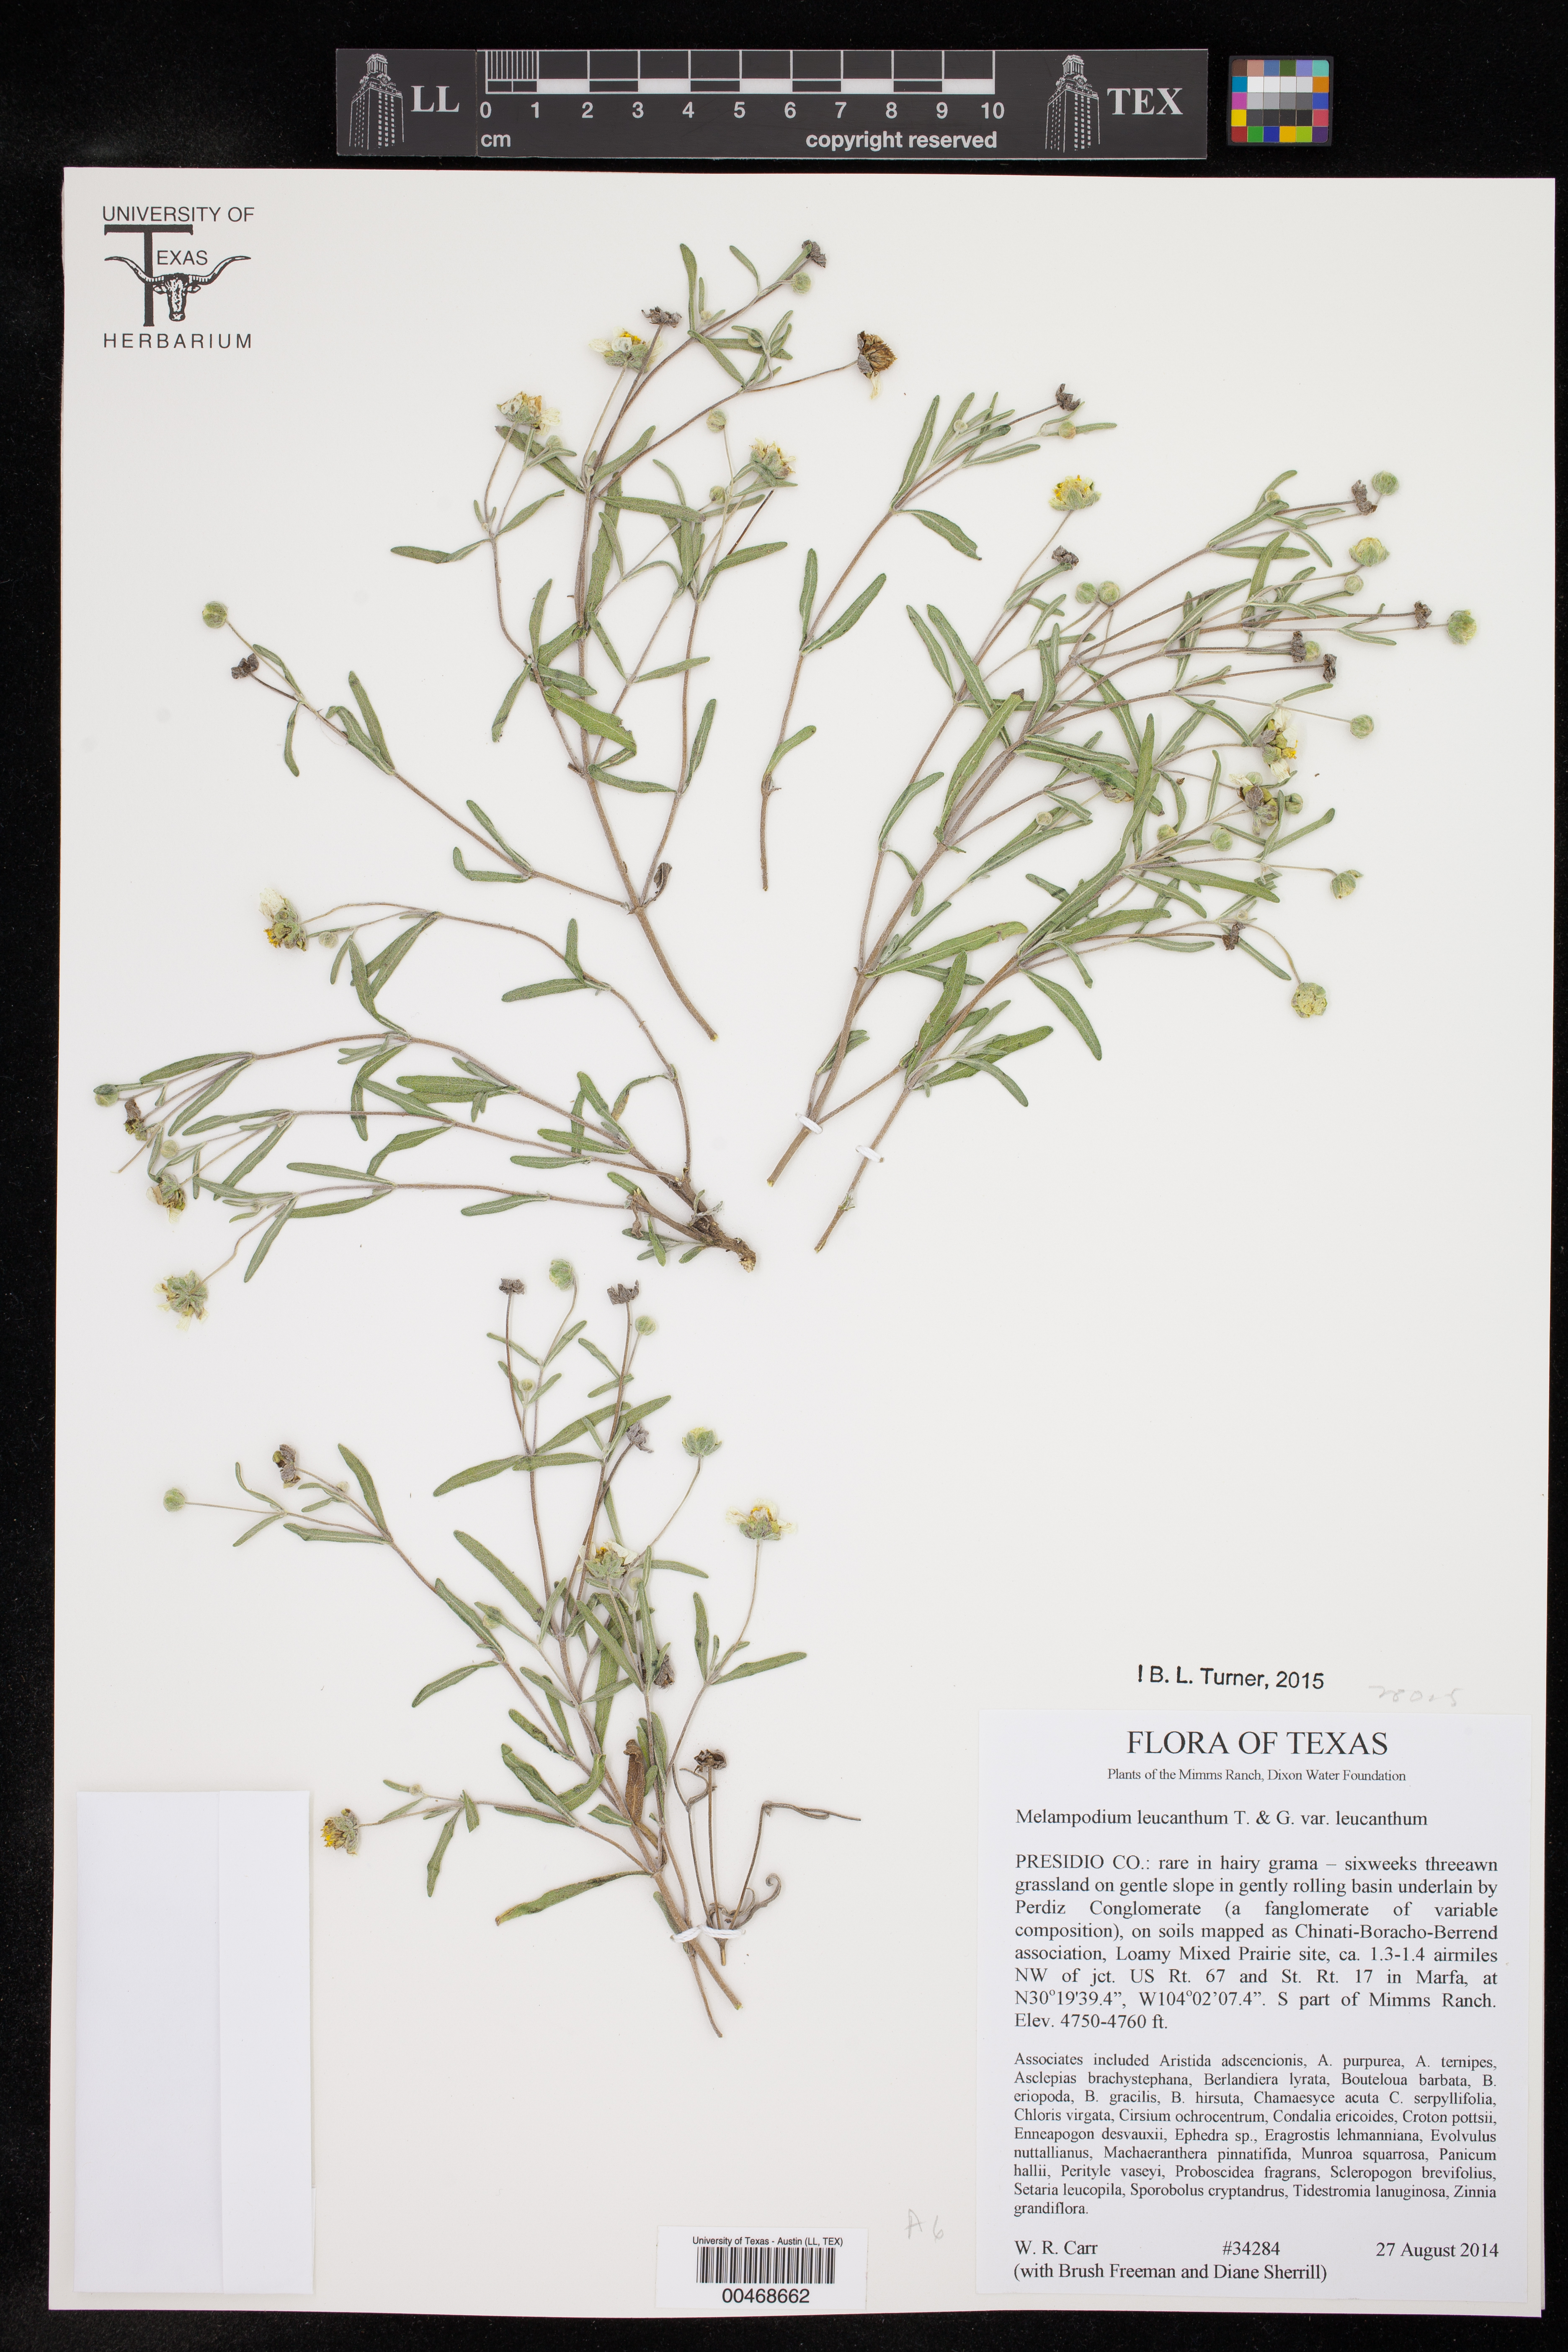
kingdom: Plantae
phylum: Tracheophyta
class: Magnoliopsida
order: Asterales
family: Asteraceae
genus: Melampodium
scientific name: Melampodium leucanthum
